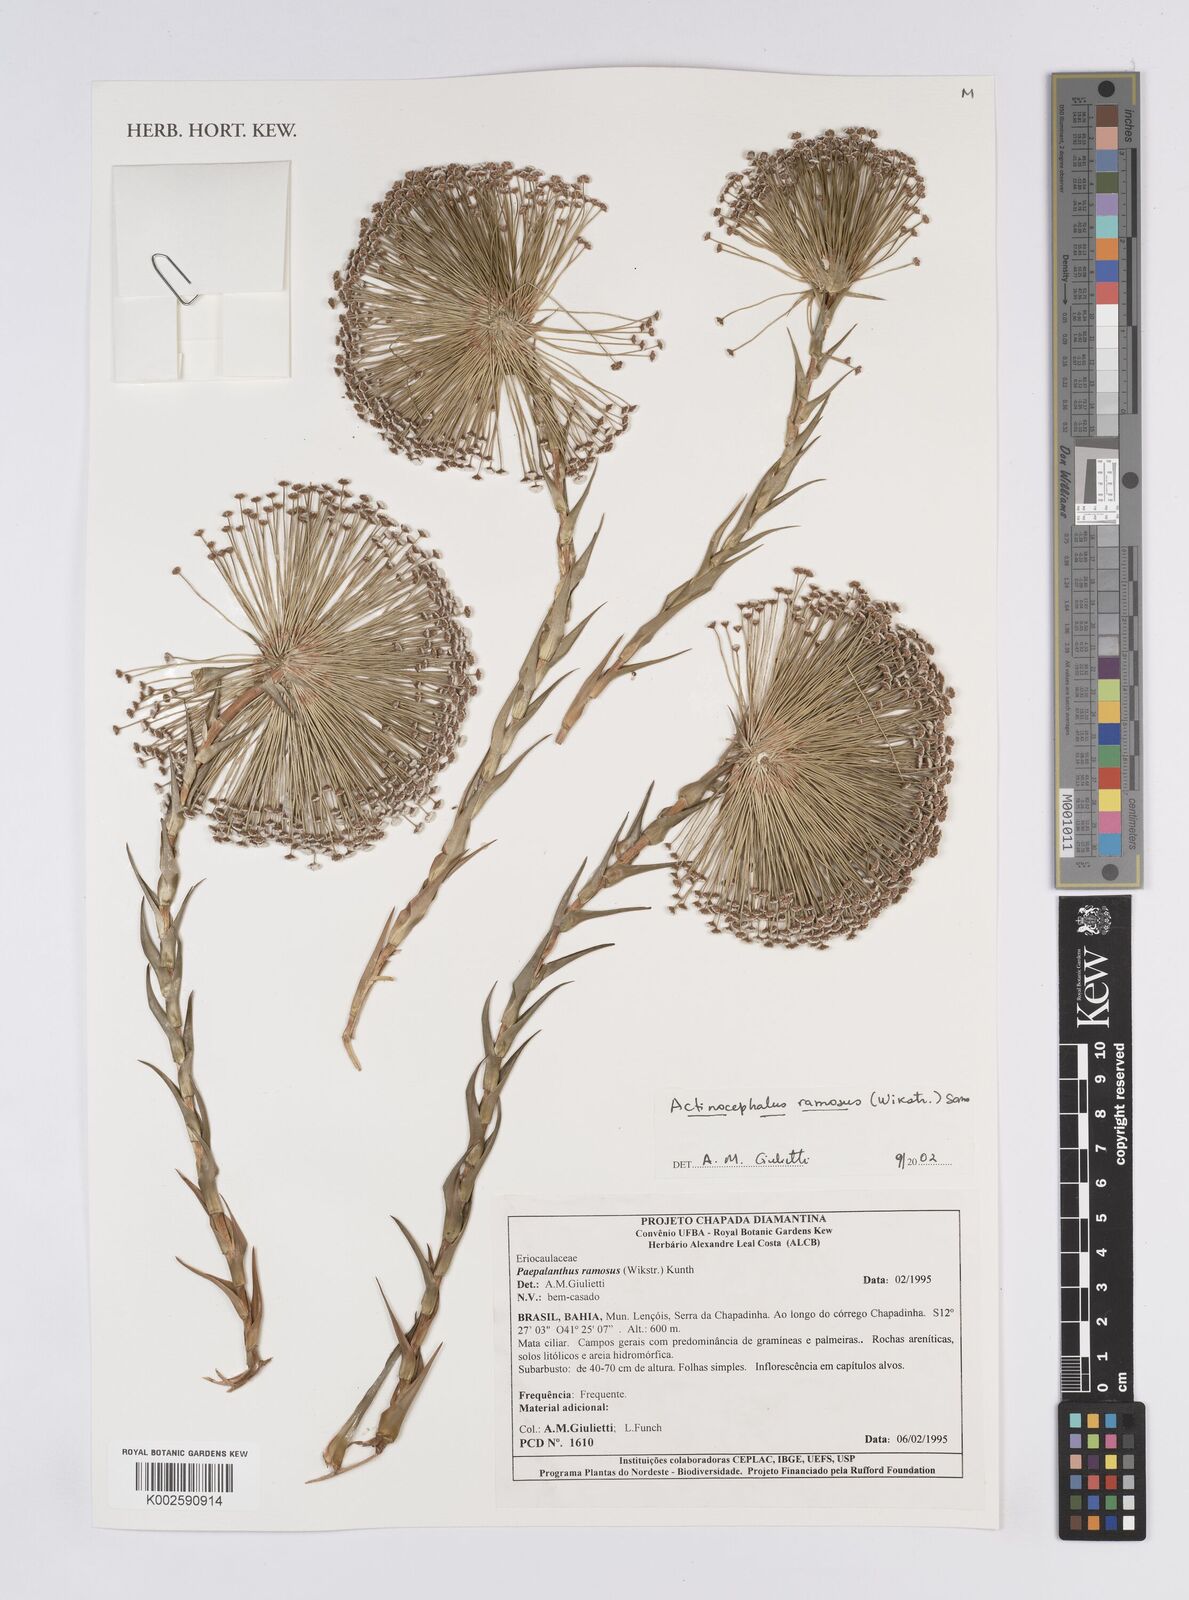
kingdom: Plantae
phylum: Tracheophyta
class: Liliopsida
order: Poales
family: Eriocaulaceae
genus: Paepalanthus
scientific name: Paepalanthus ramosus
